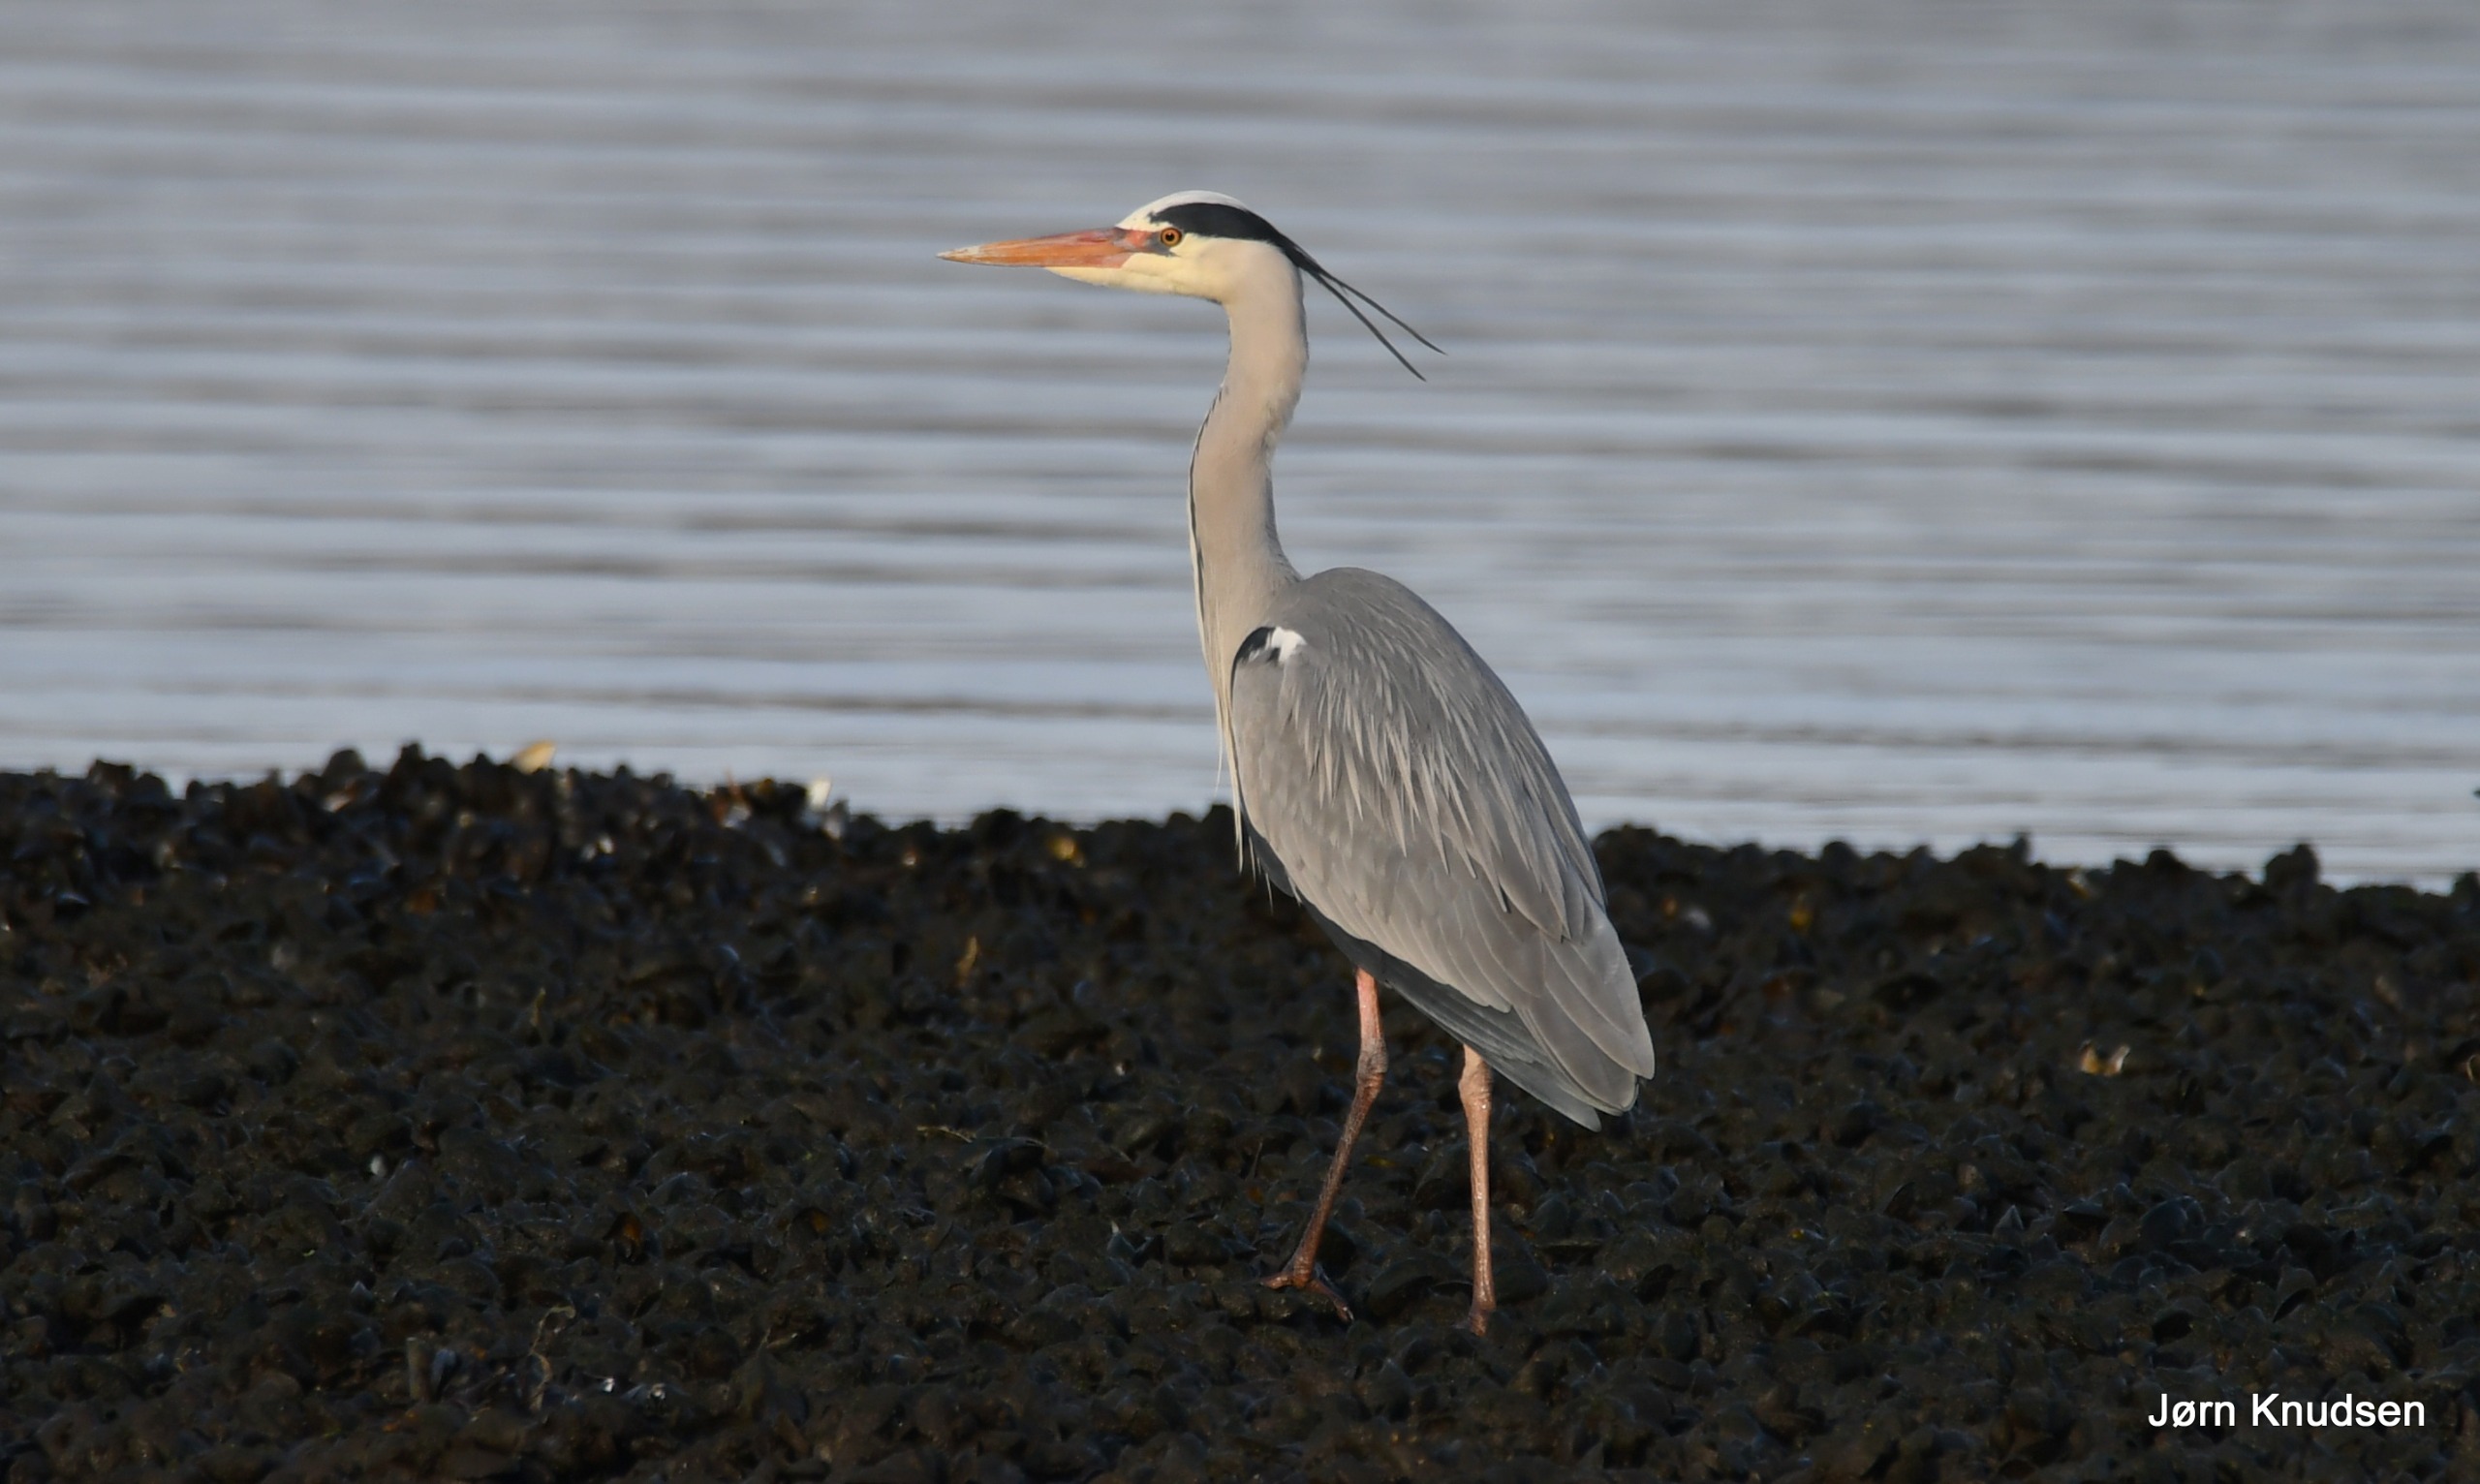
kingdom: Animalia
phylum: Chordata
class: Aves
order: Pelecaniformes
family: Ardeidae
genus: Ardea
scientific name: Ardea cinerea
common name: Fiskehejre
